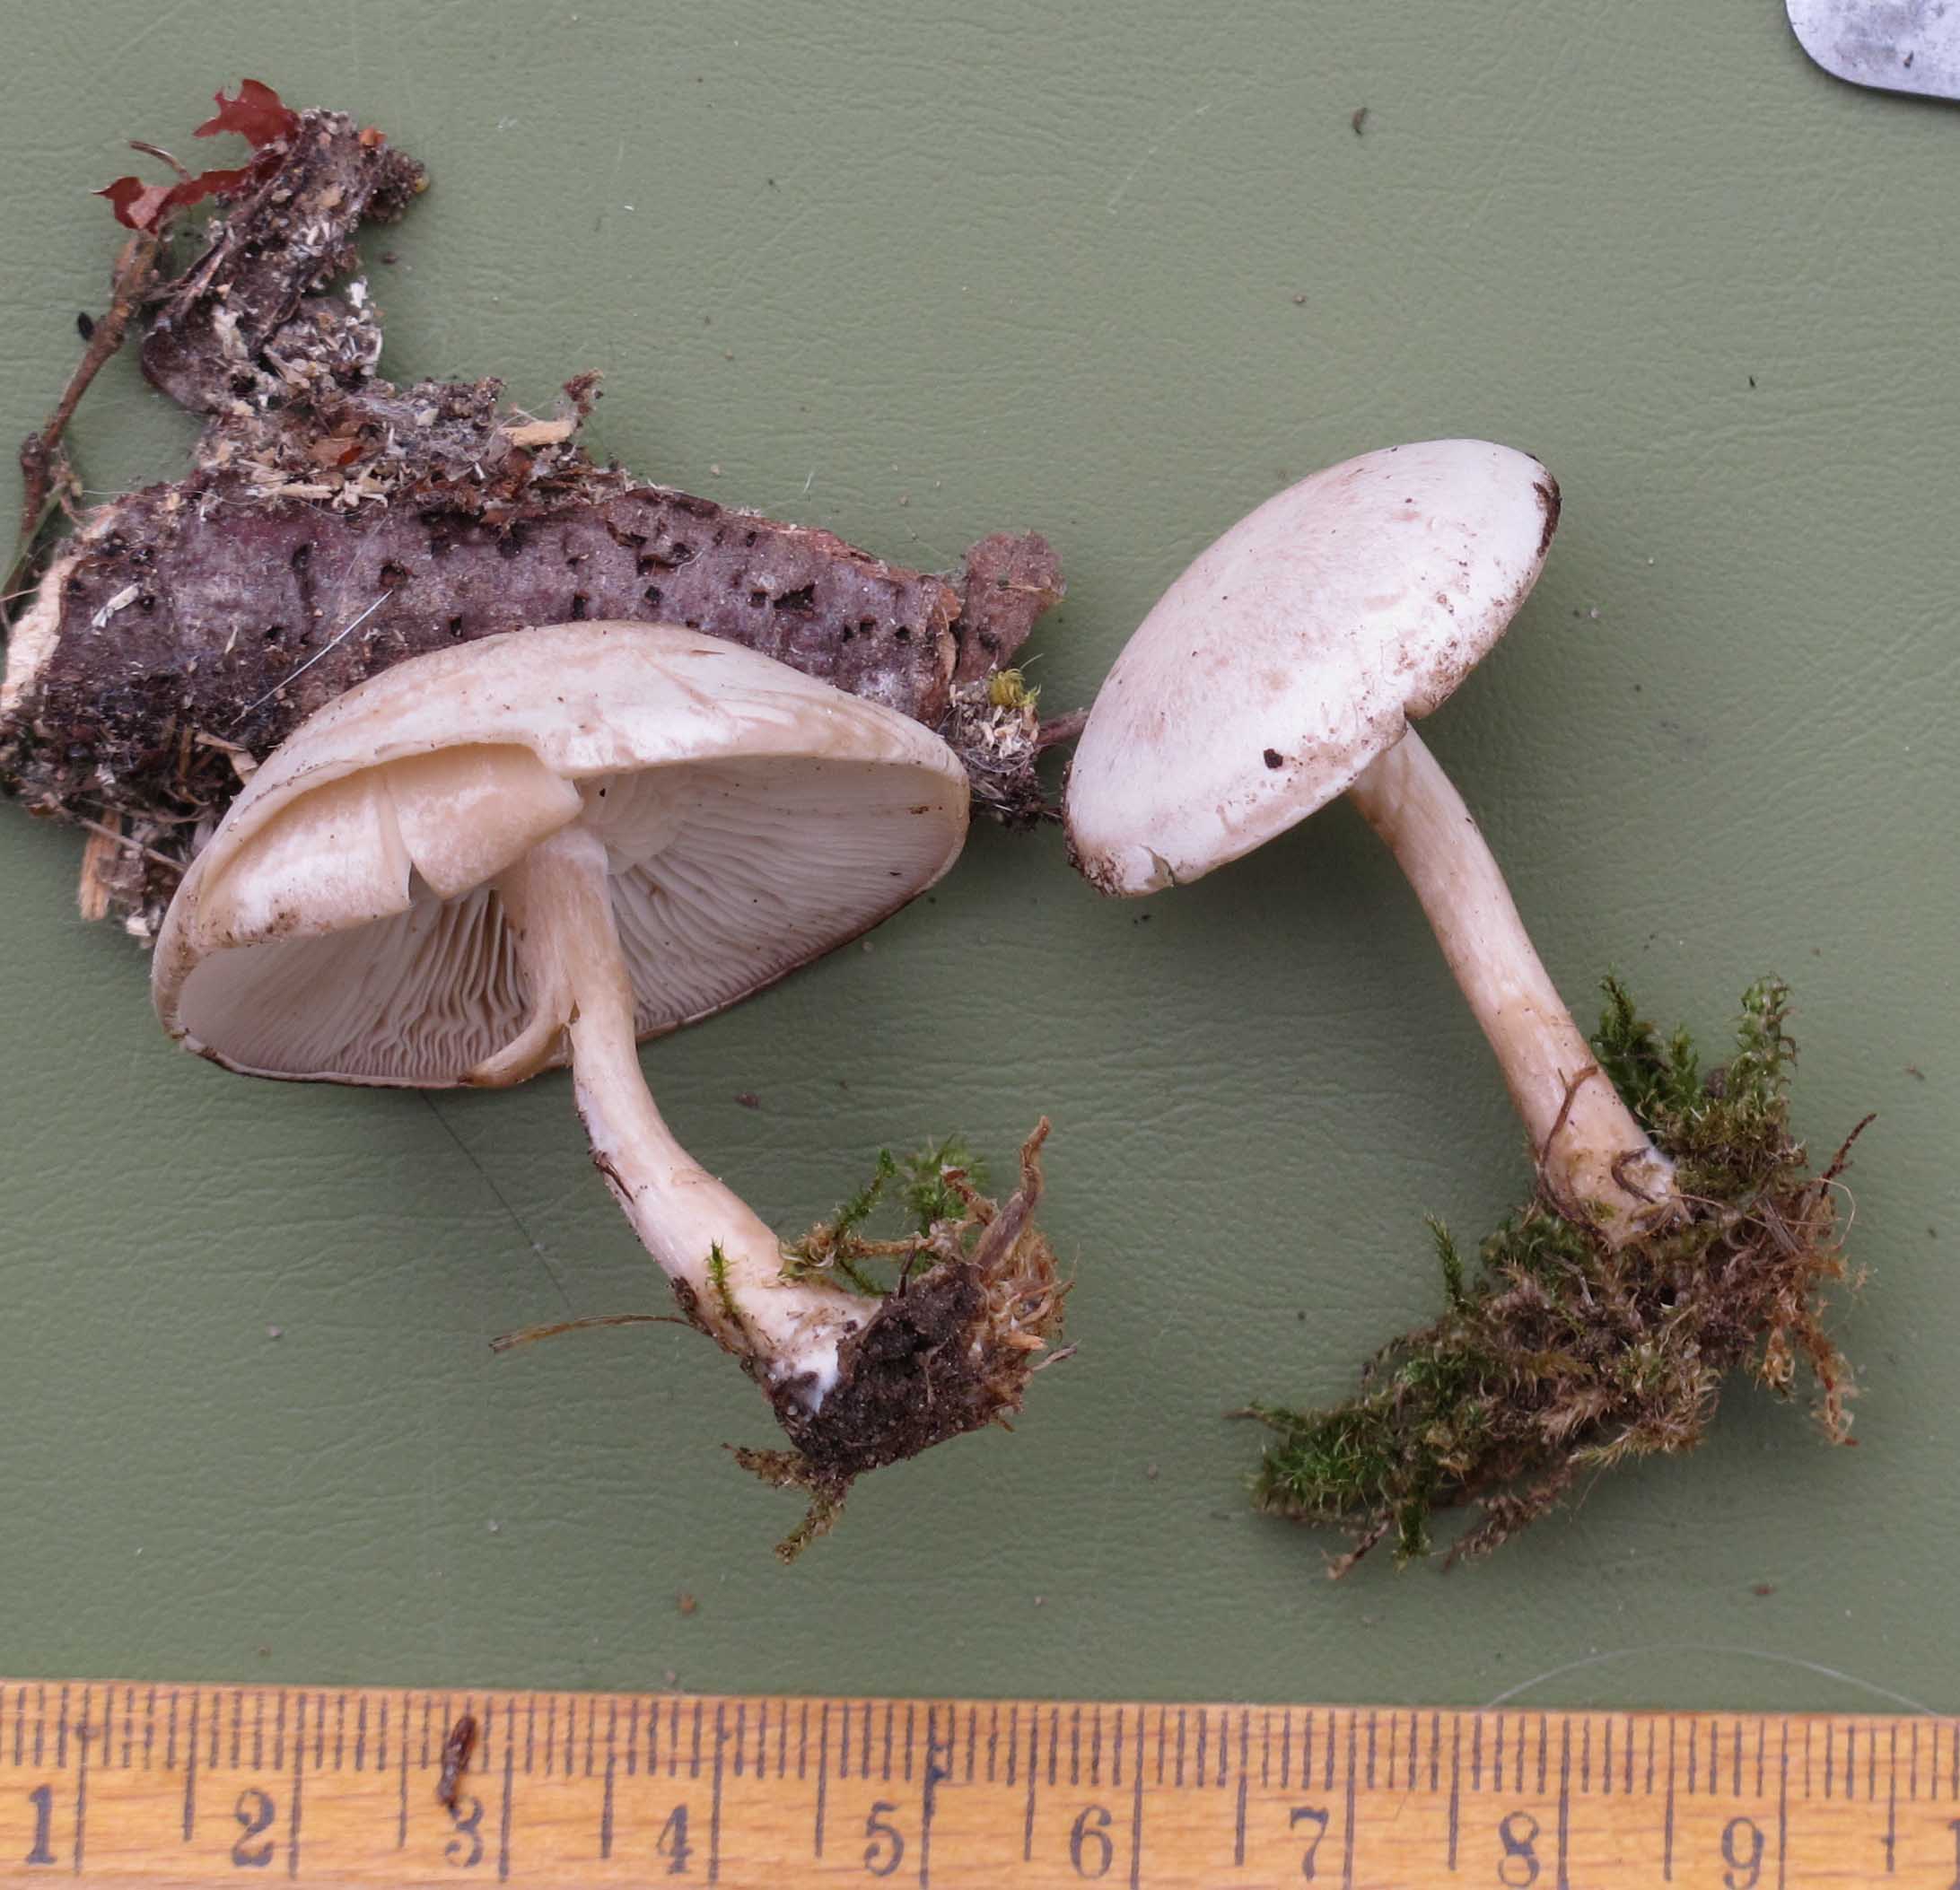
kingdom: Fungi
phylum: Basidiomycota
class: Agaricomycetes
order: Agaricales
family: Tricholomataceae
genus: Leucocybe
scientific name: Leucocybe candicans
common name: kridt-tragthat
